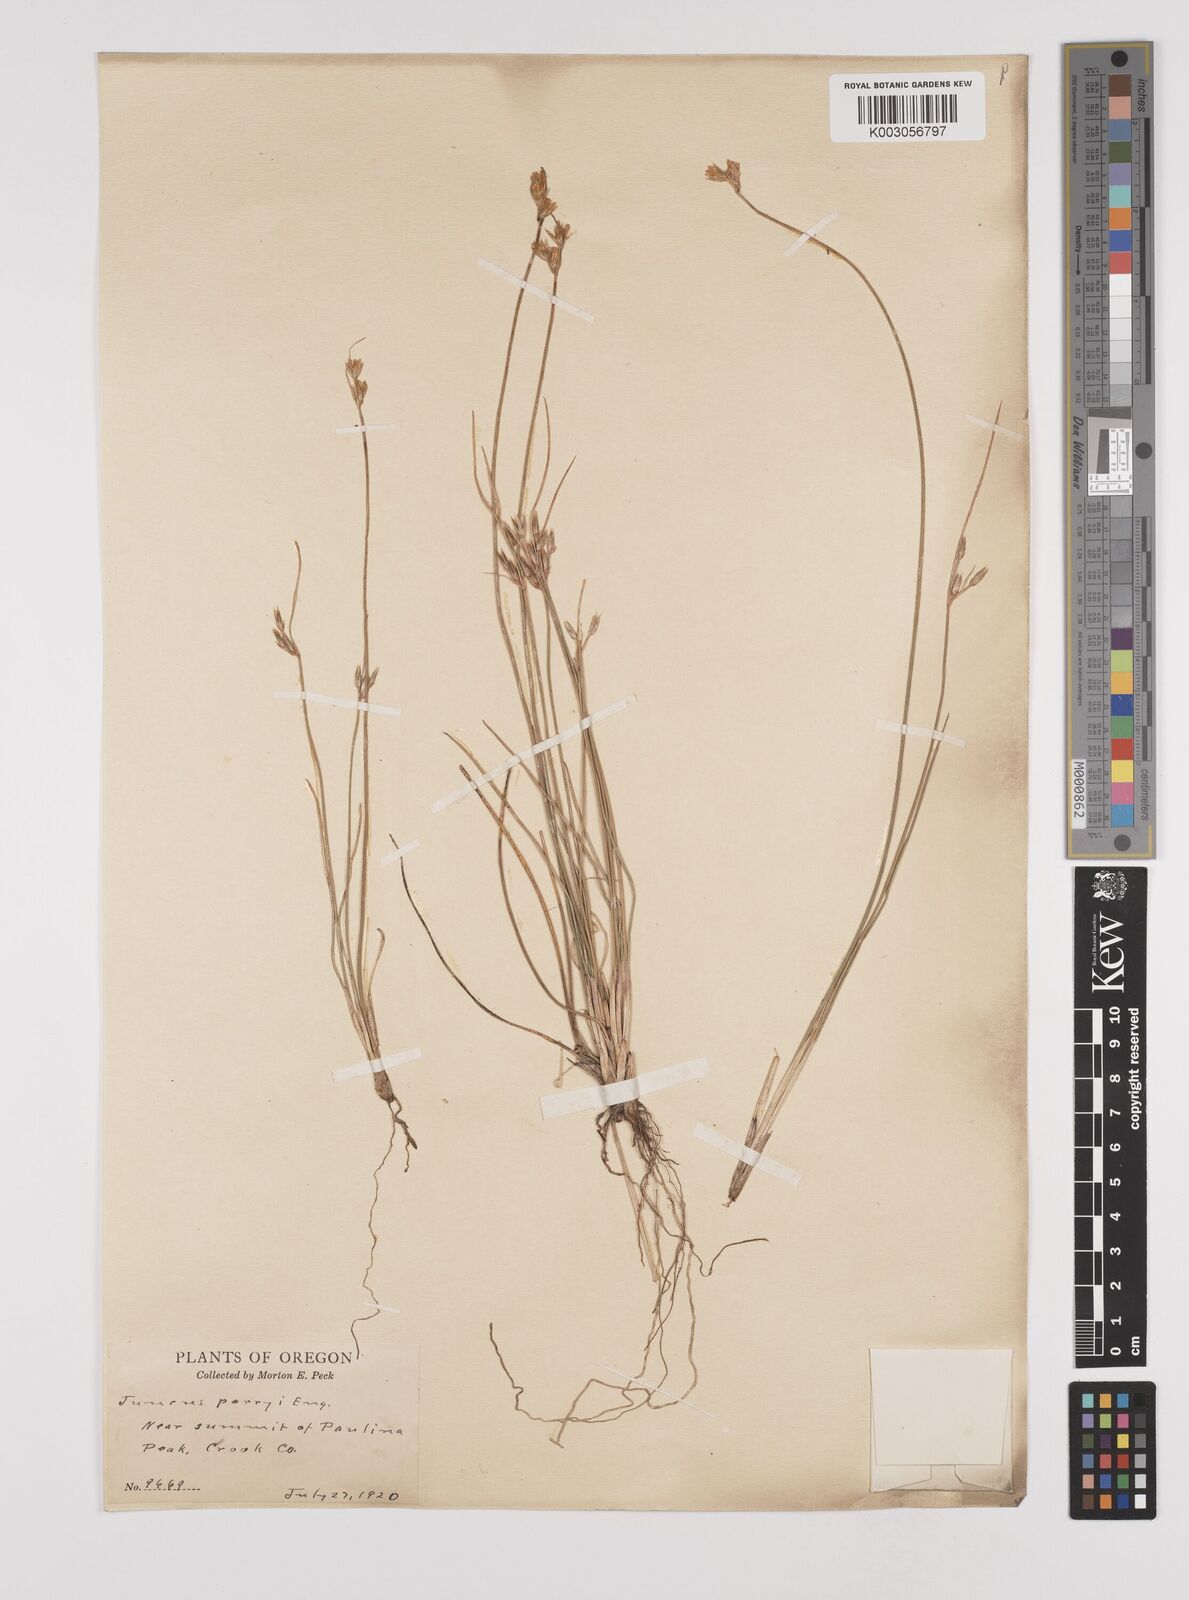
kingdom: Plantae
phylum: Tracheophyta
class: Liliopsida
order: Poales
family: Juncaceae
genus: Juncus
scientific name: Juncus parryi
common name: Parry's rush
